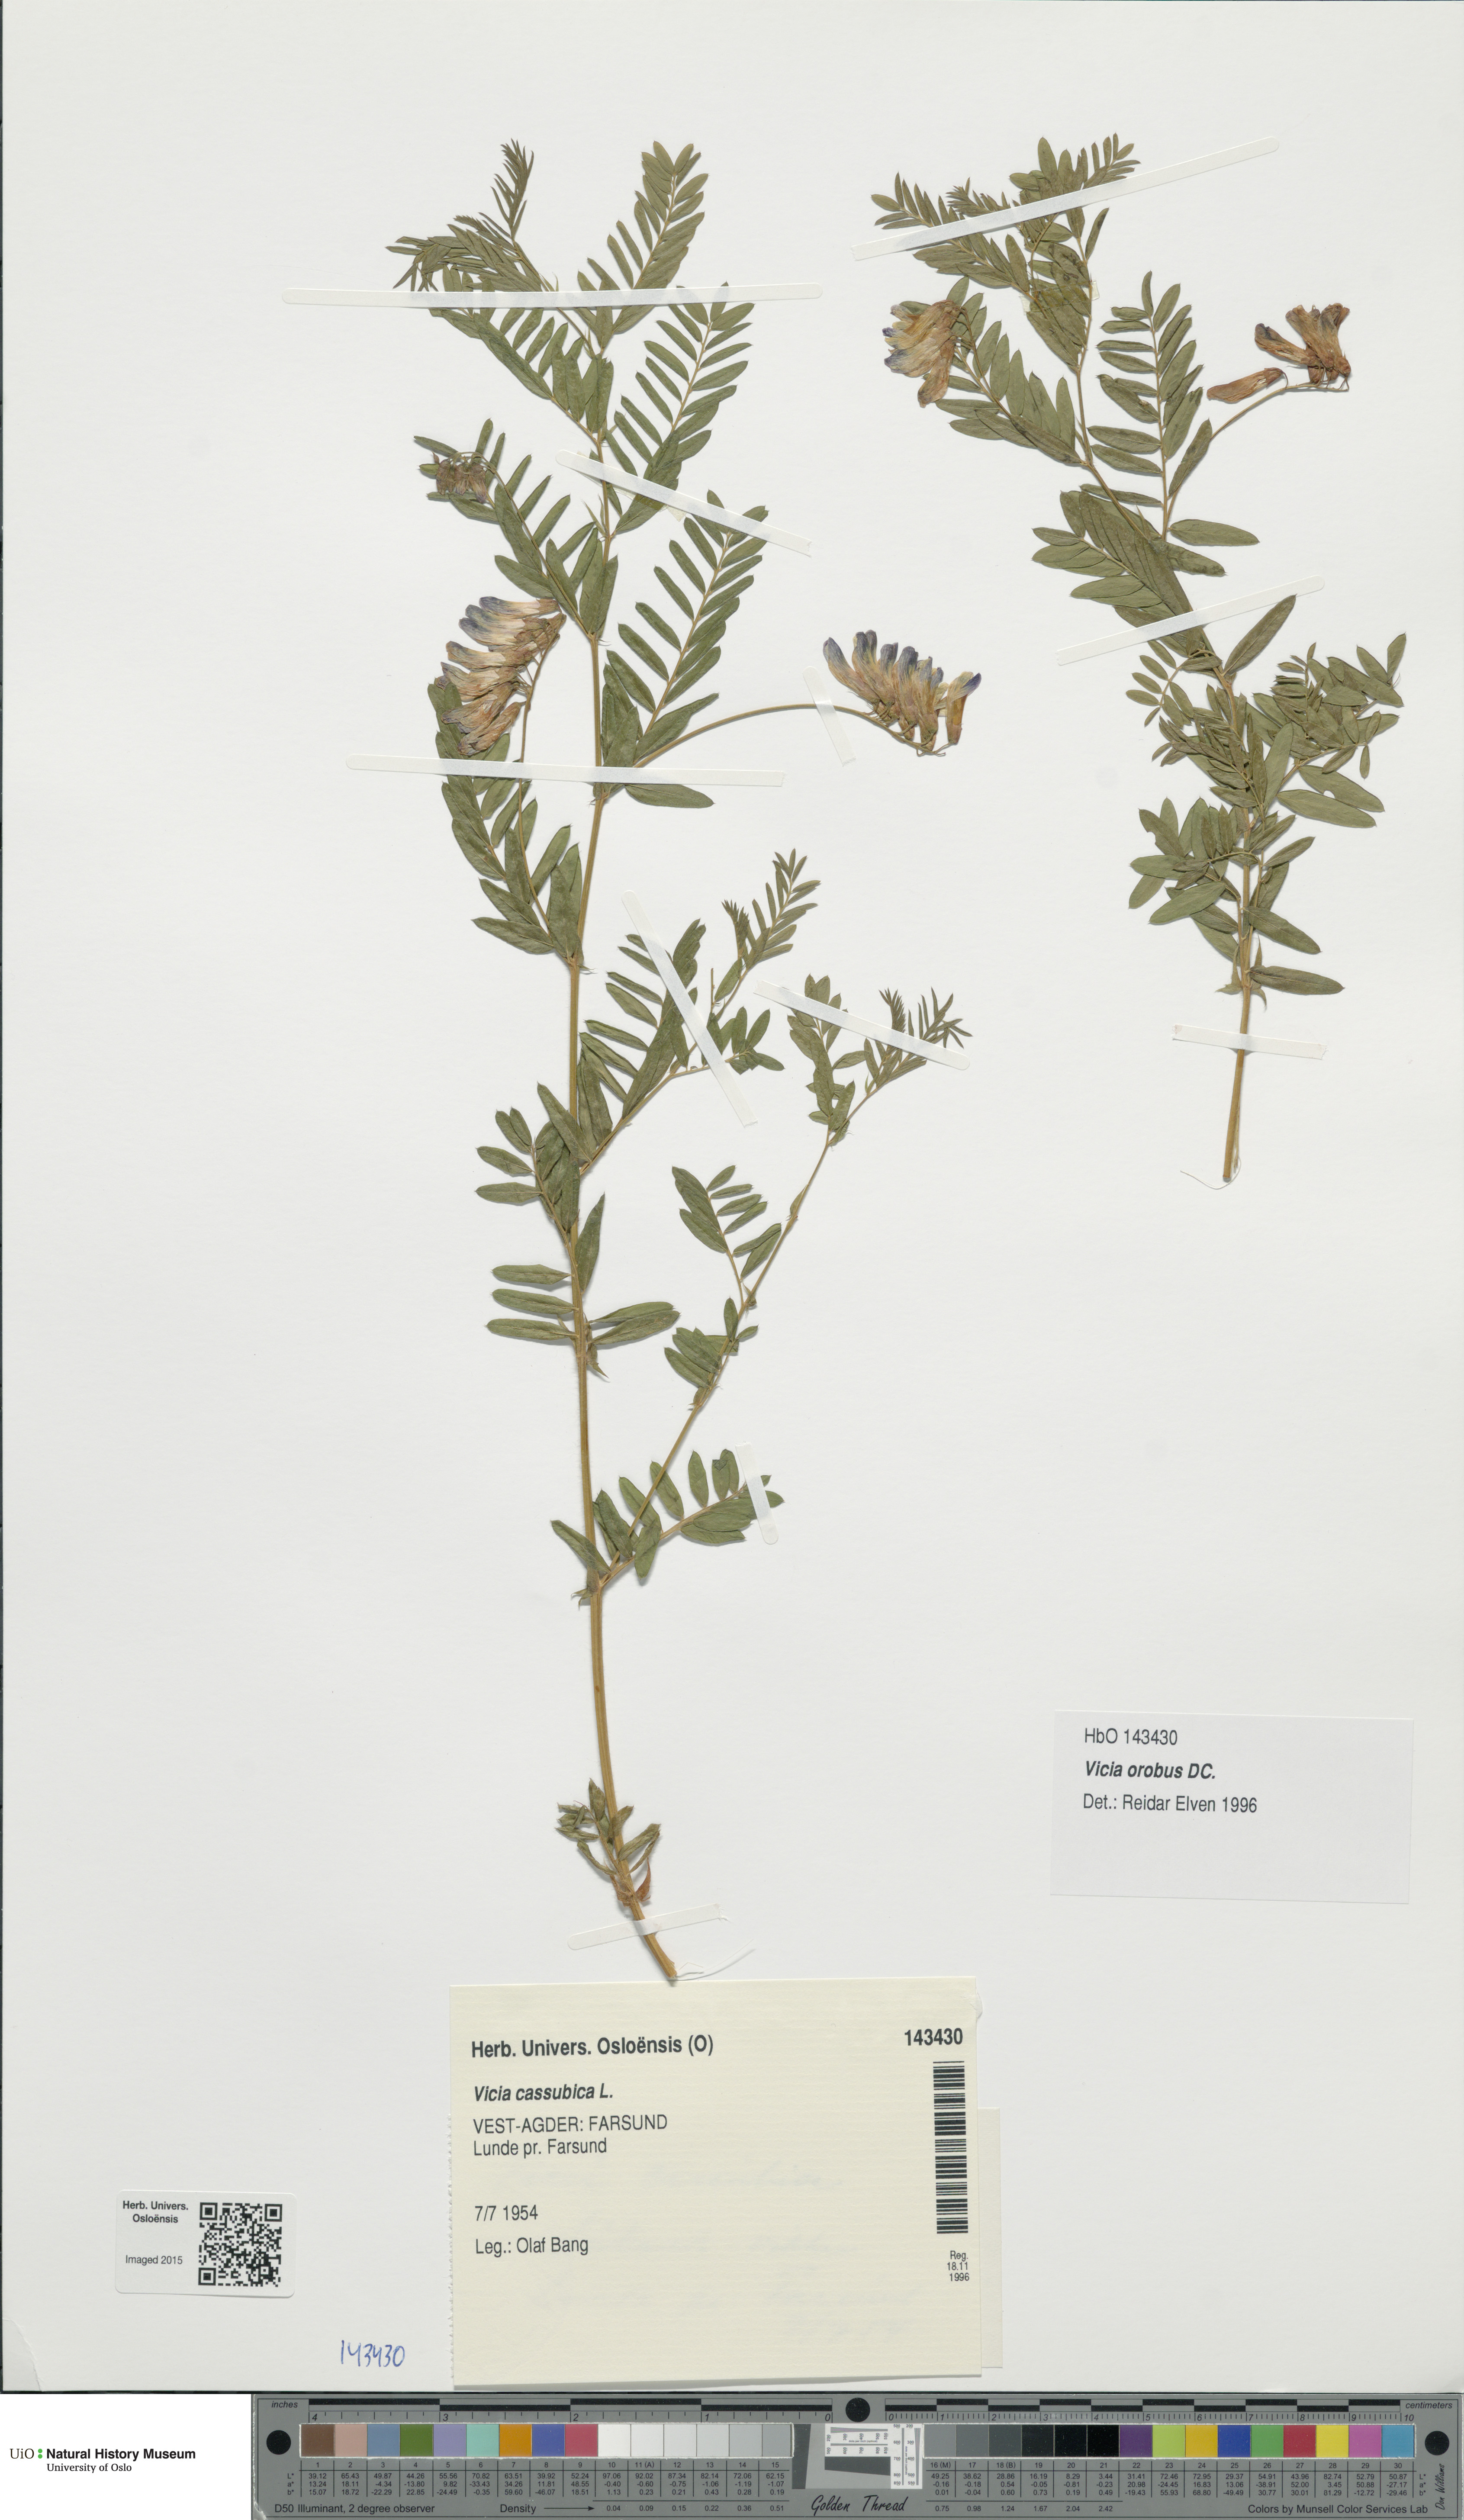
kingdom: Plantae
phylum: Tracheophyta
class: Magnoliopsida
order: Fabales
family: Fabaceae
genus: Vicia
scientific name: Vicia orobus
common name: Wood bitter-vetch
